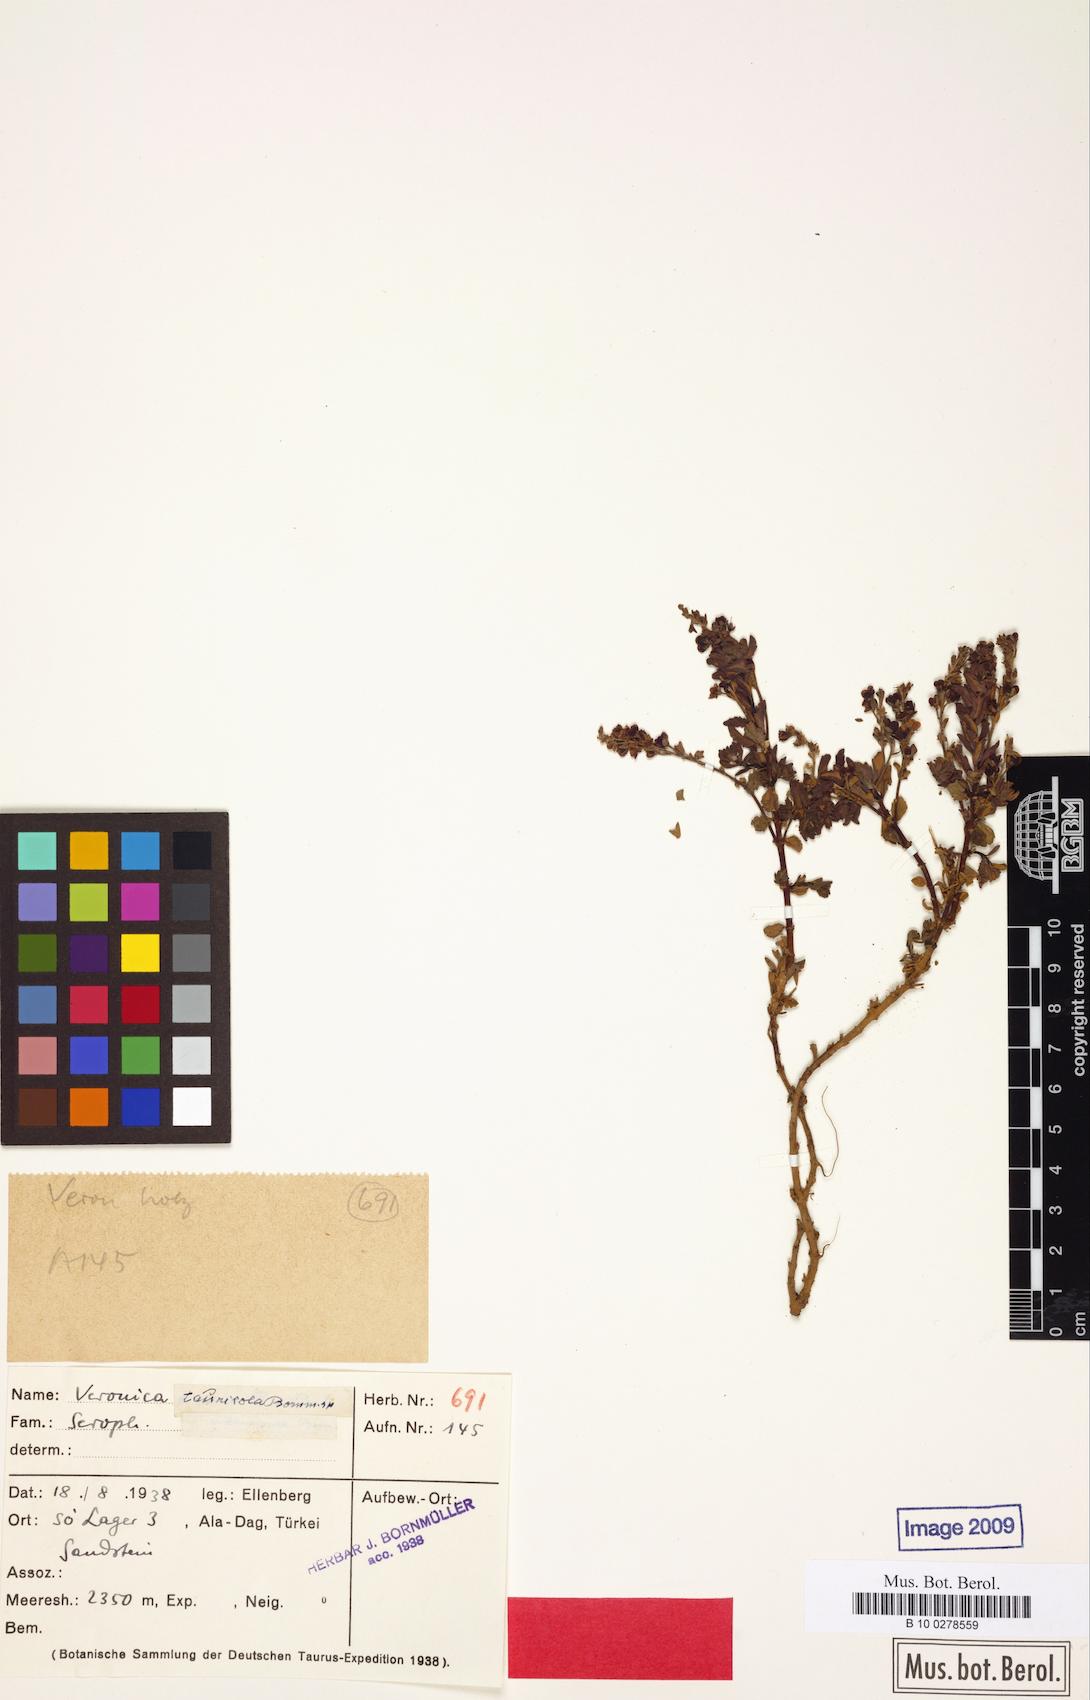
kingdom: Plantae
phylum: Tracheophyta
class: Magnoliopsida
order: Lamiales
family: Plantaginaceae
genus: Veronica
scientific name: Veronica tauricola
